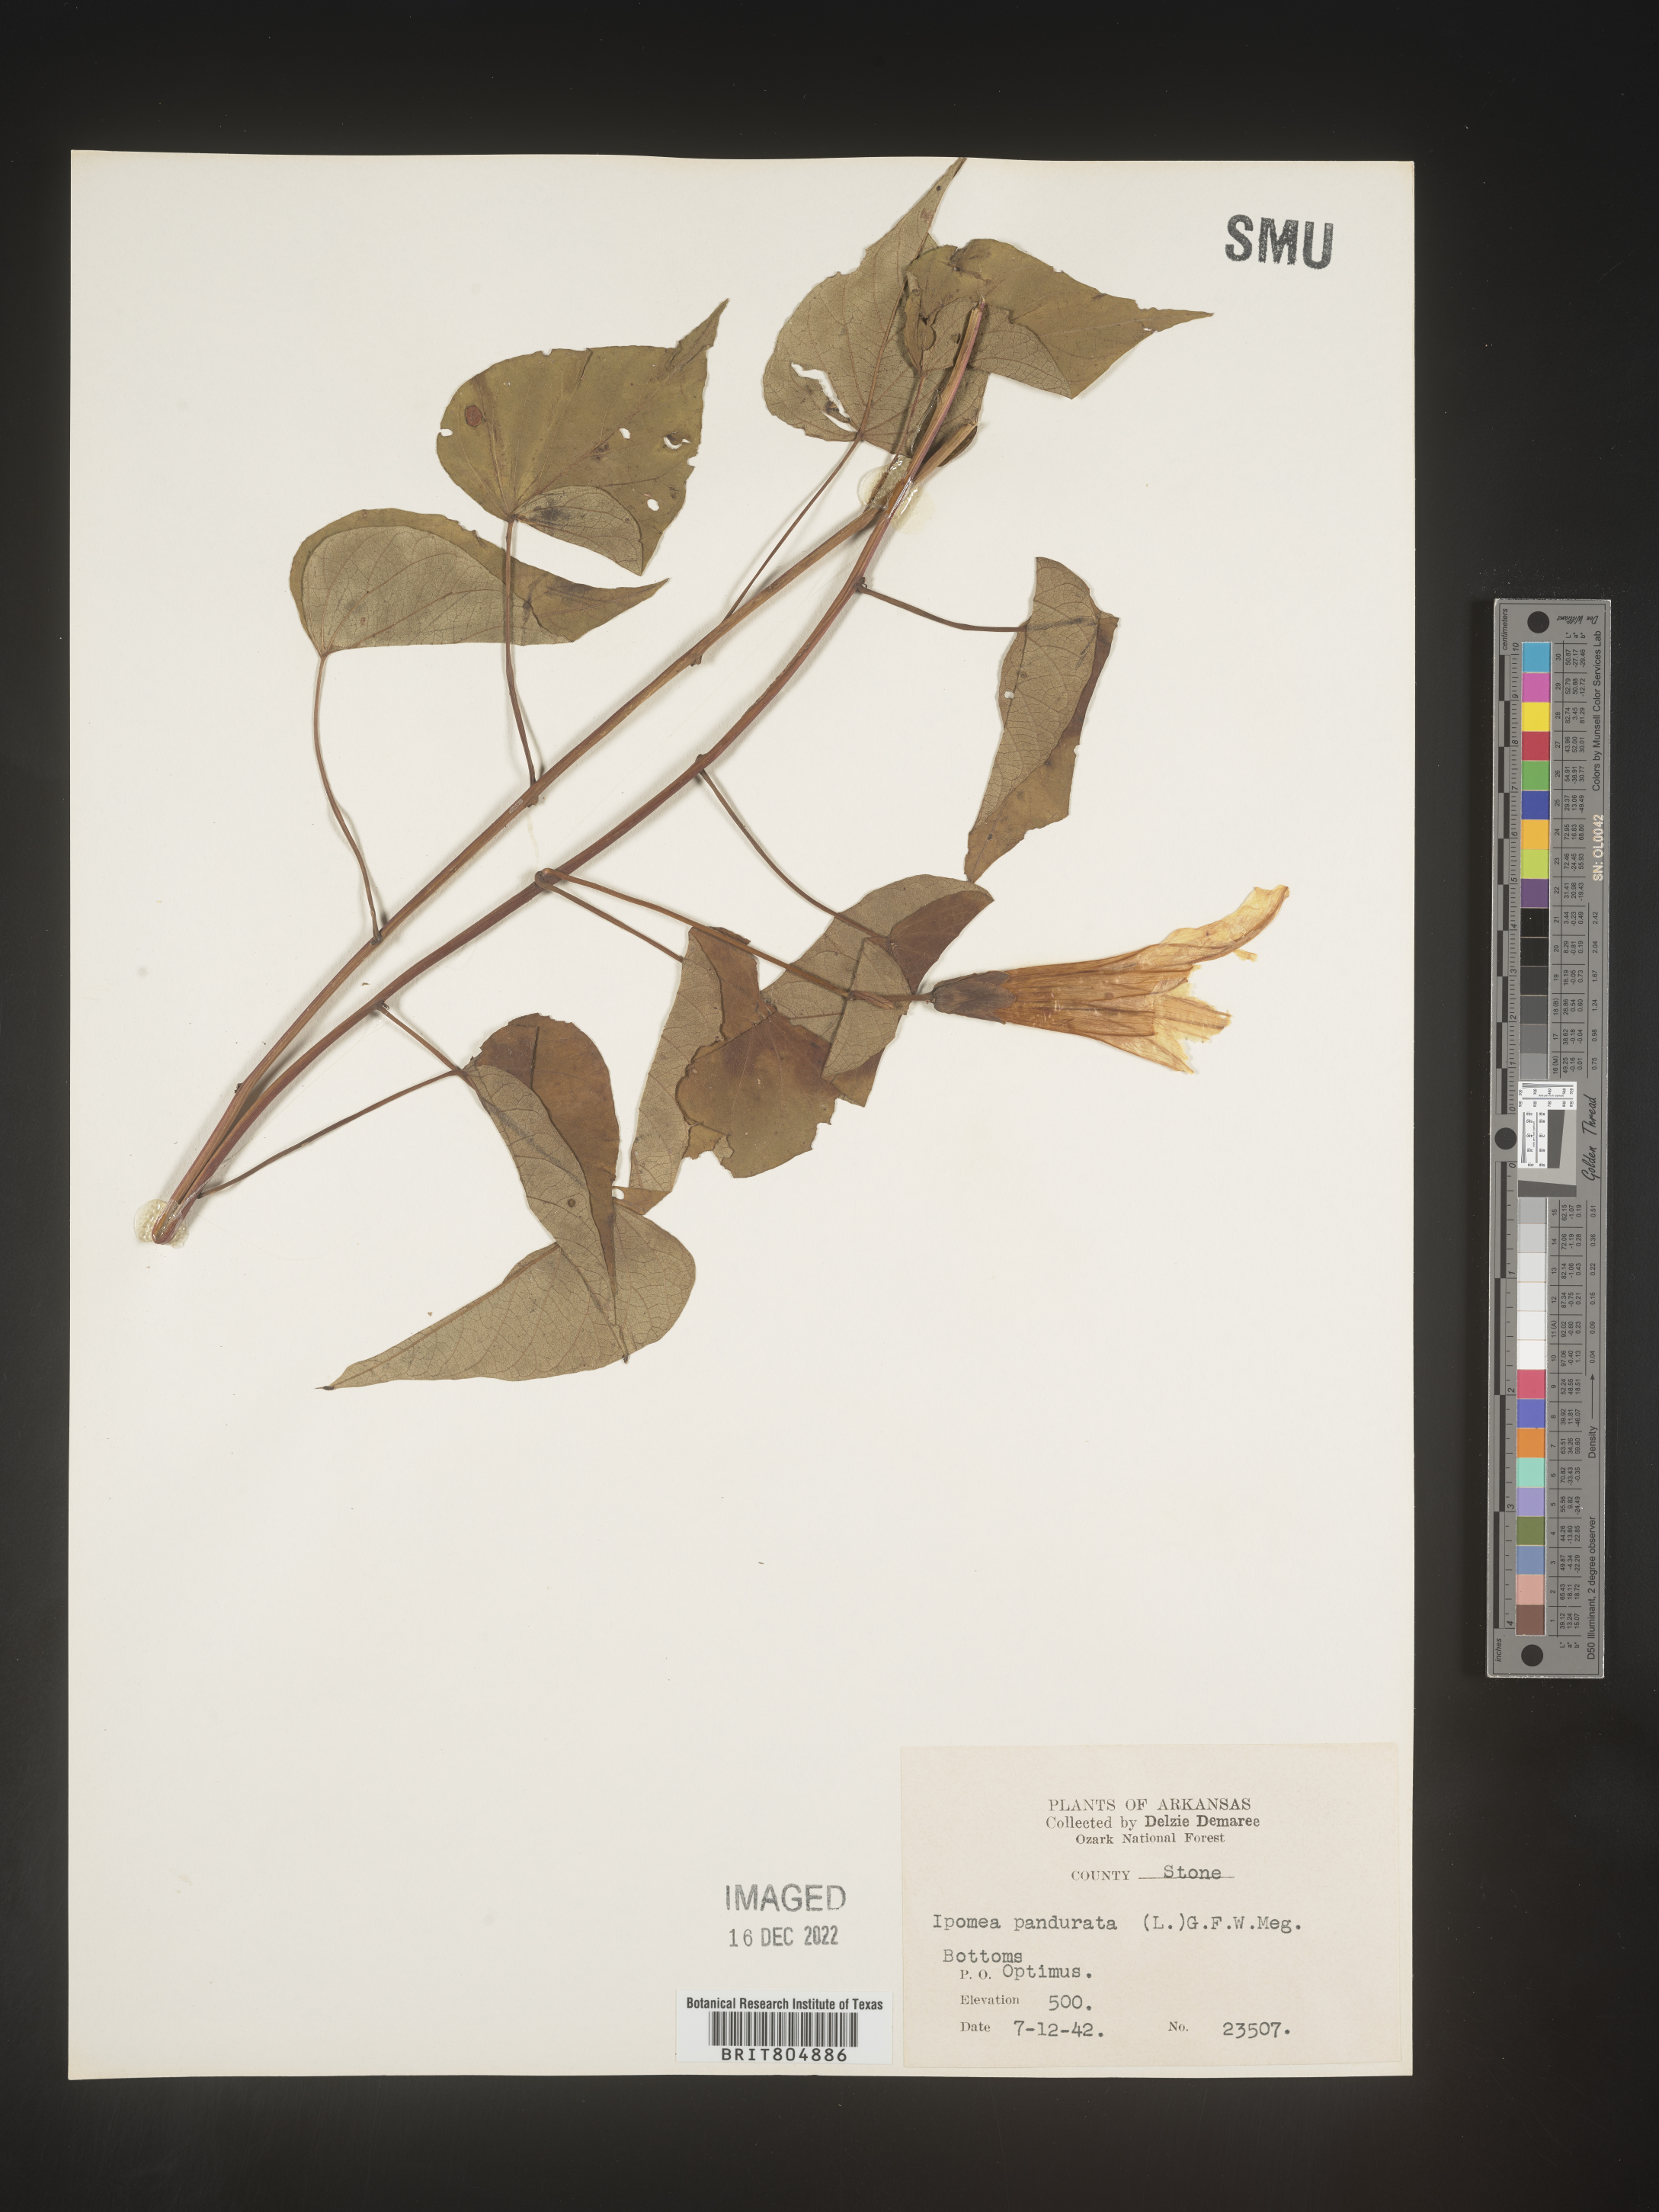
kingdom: Plantae
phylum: Tracheophyta
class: Magnoliopsida
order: Solanales
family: Convolvulaceae
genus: Ipomoea
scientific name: Ipomoea pandurata
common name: Man-of-the-earth
